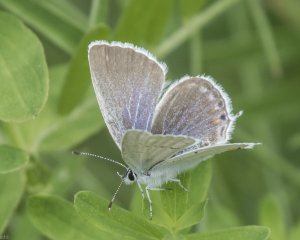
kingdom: Animalia
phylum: Arthropoda
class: Insecta
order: Lepidoptera
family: Lycaenidae
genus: Elkalyce
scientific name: Elkalyce amyntula
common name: Western Tailed-Blue
